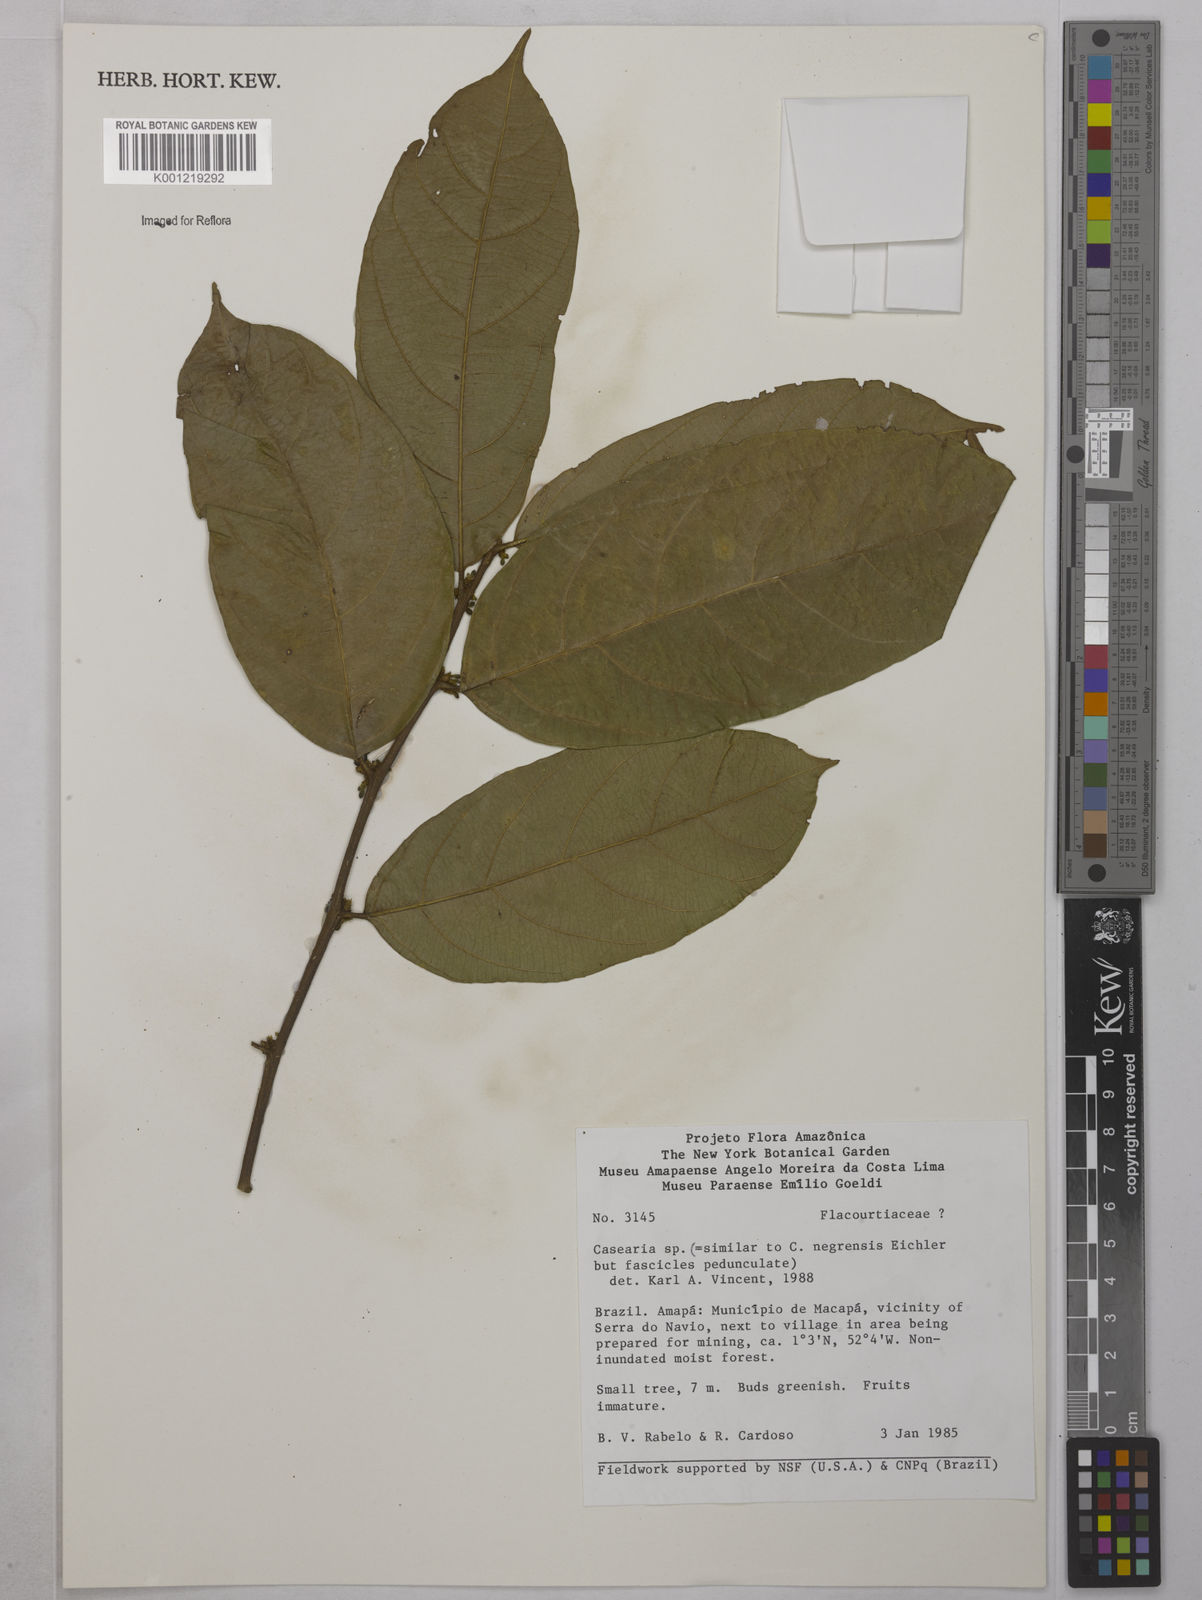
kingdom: Plantae
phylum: Tracheophyta
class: Magnoliopsida
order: Malpighiales
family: Salicaceae
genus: Casearia
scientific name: Casearia
